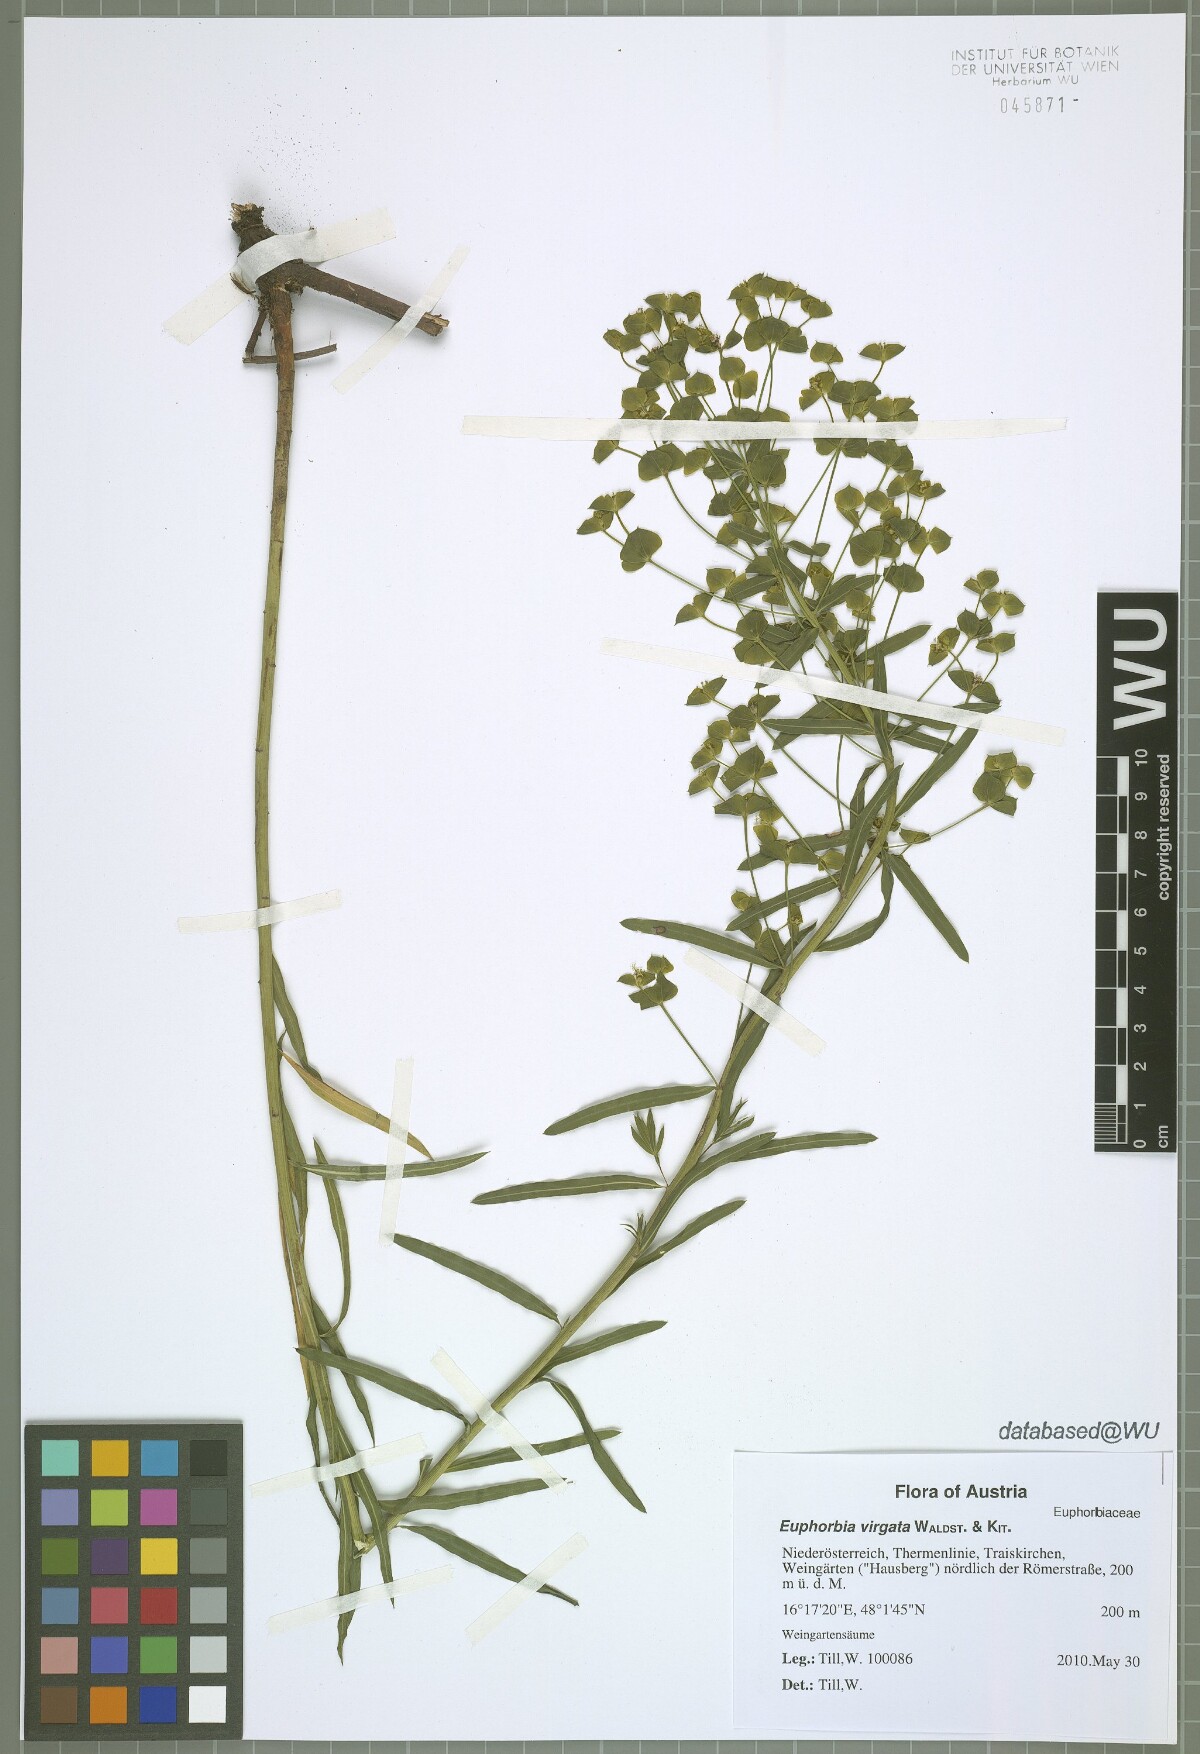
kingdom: Plantae
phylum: Tracheophyta
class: Magnoliopsida
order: Malpighiales
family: Euphorbiaceae
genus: Euphorbia
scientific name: Euphorbia virgata
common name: Leafy spurge
